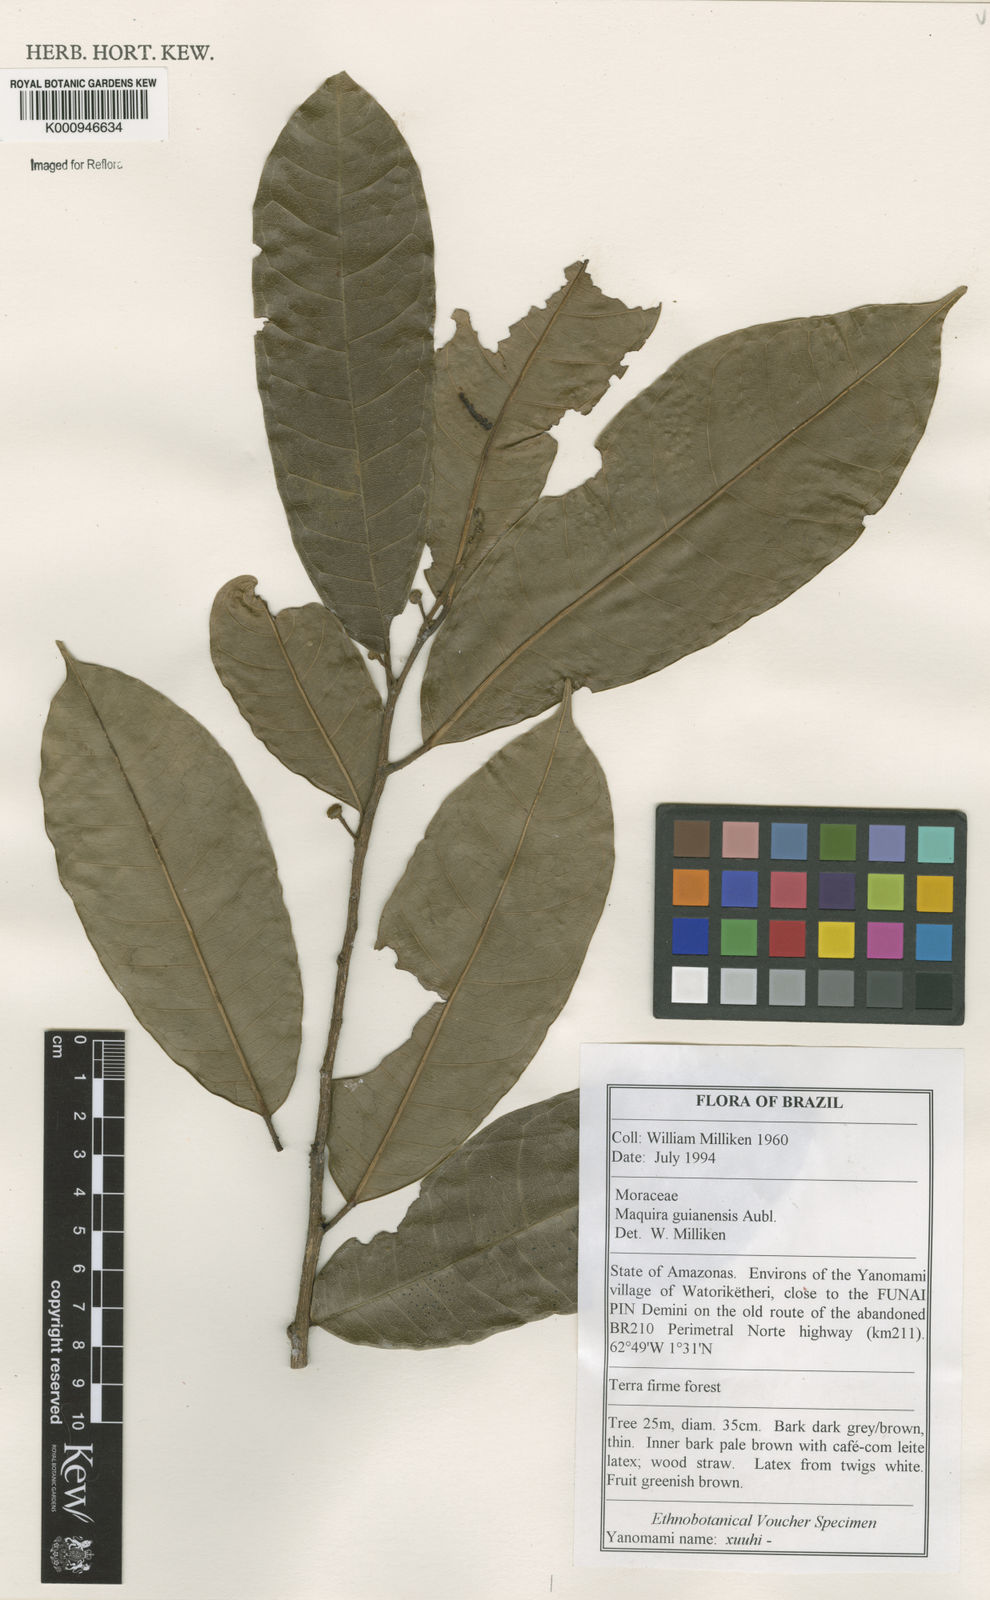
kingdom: Plantae
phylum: Tracheophyta
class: Magnoliopsida
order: Rosales
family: Moraceae
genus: Maquira
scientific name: Maquira guianensis
